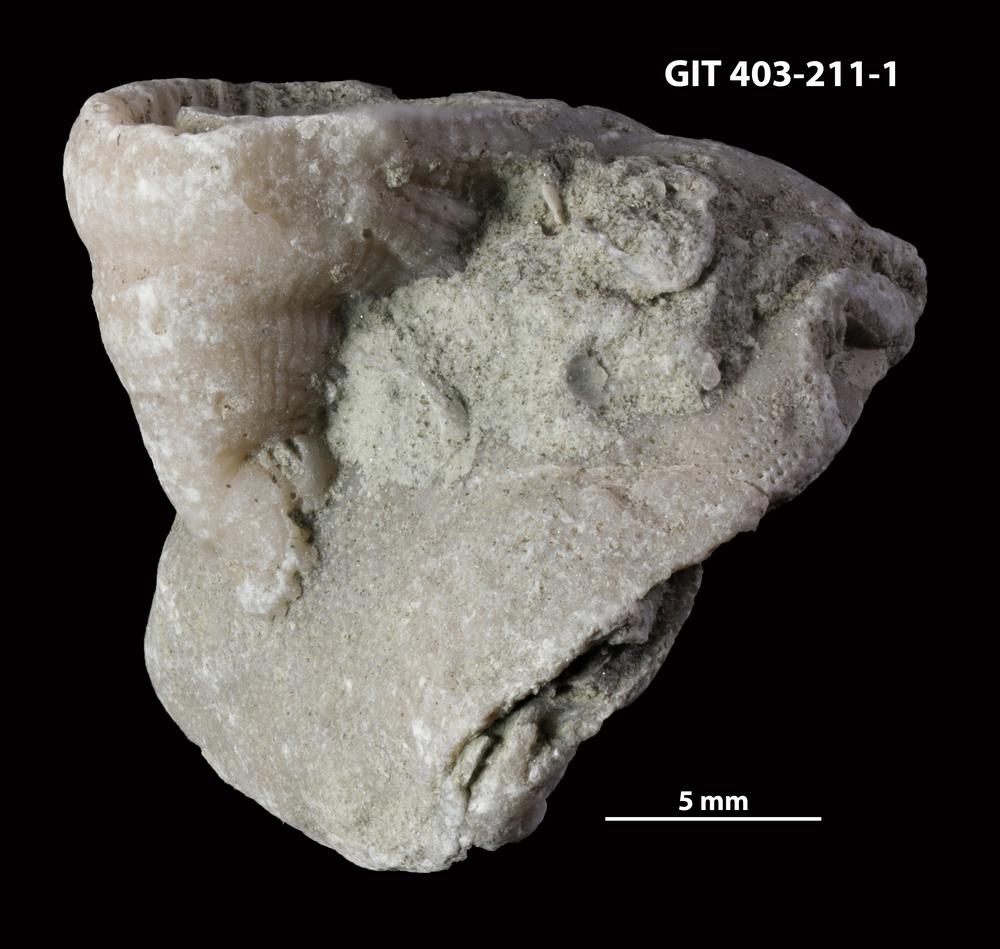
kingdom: Animalia
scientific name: Animalia
